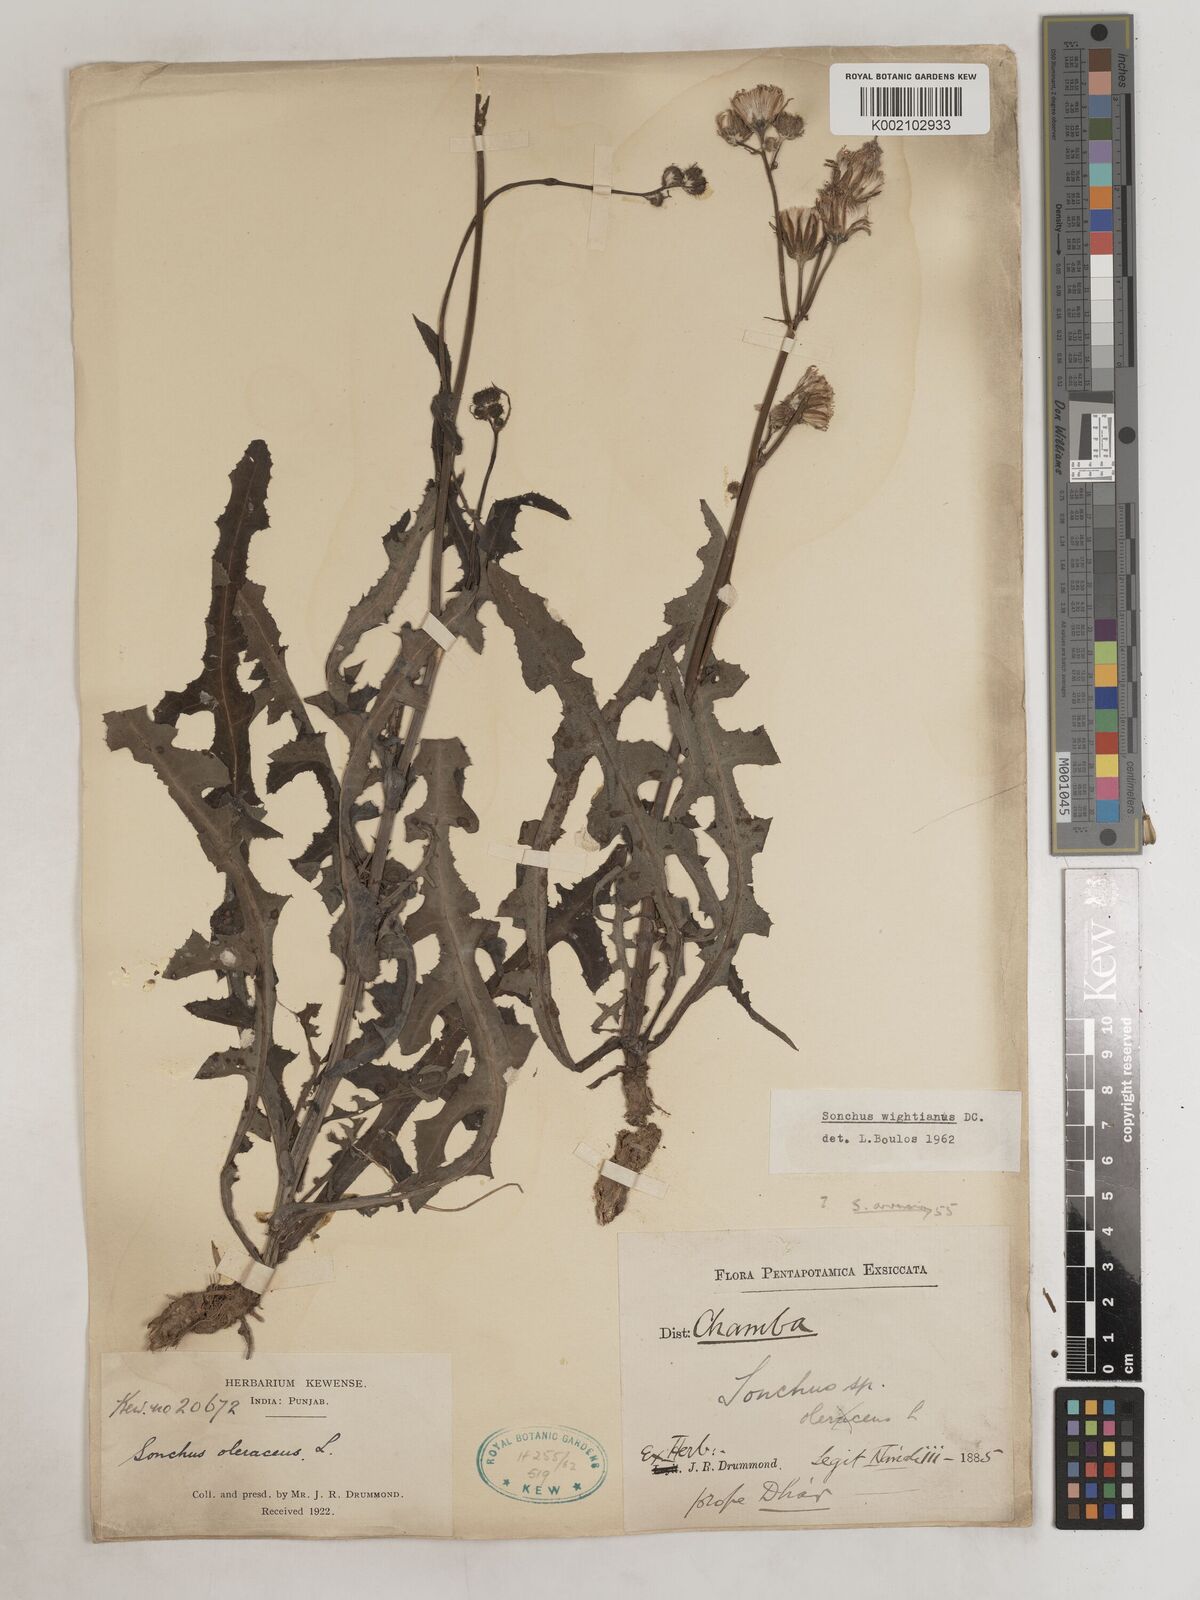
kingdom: Plantae
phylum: Tracheophyta
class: Magnoliopsida
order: Asterales
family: Asteraceae
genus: Sonchus
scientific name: Sonchus arvensis
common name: Perennial sow-thistle
